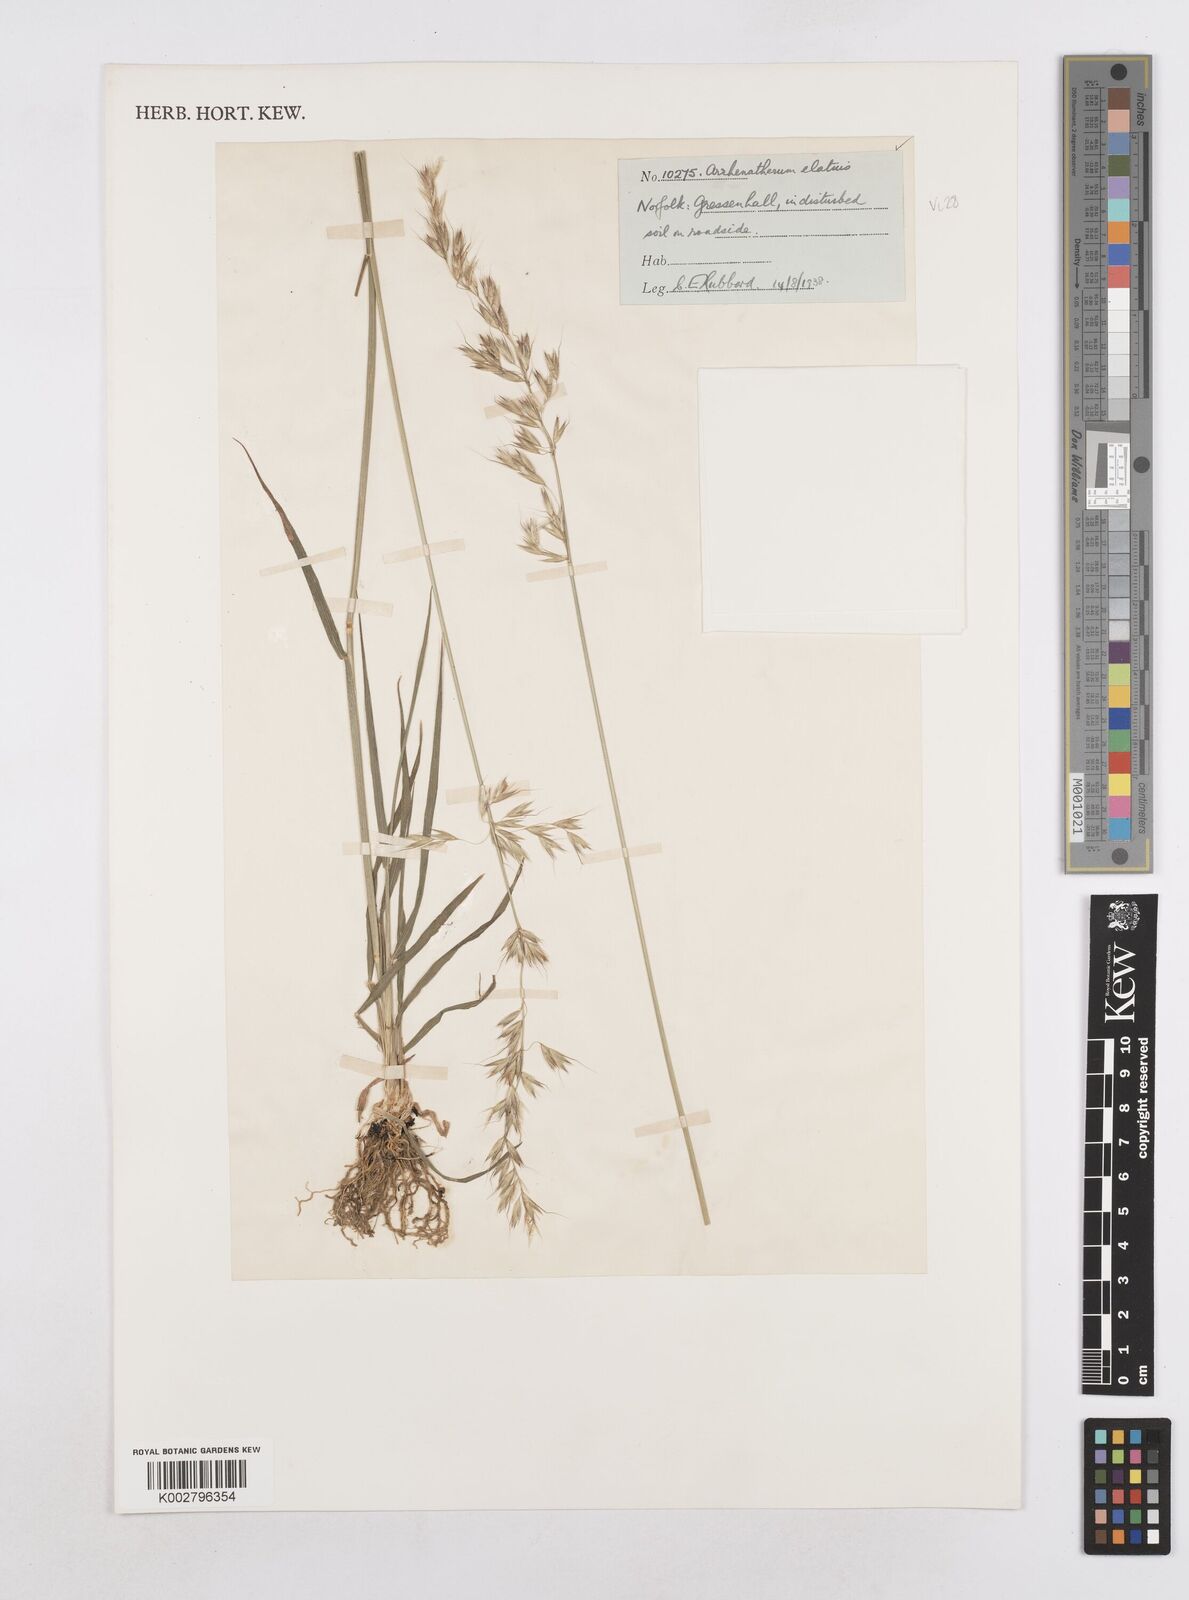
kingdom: Plantae
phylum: Tracheophyta
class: Liliopsida
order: Poales
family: Poaceae
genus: Arrhenatherum
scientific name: Arrhenatherum elatius
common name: Tall oatgrass
